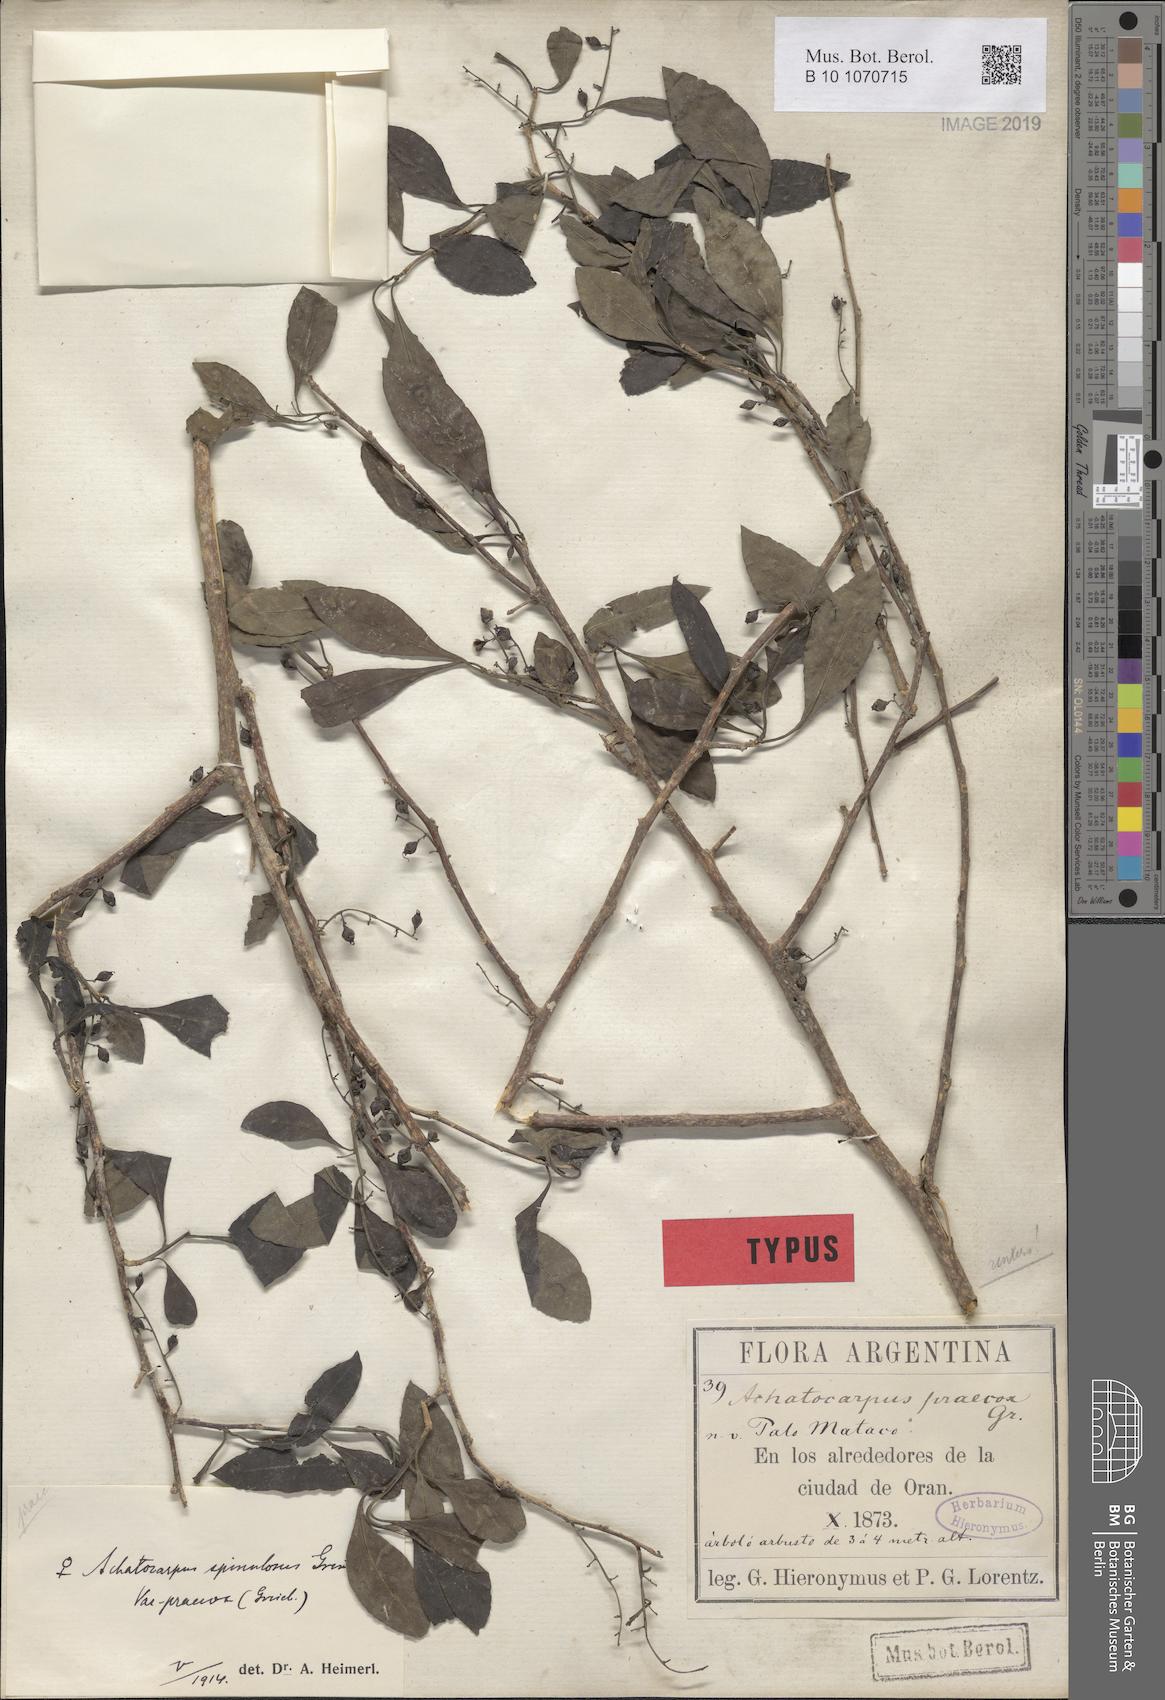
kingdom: Plantae
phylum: Tracheophyta
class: Magnoliopsida
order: Caryophyllales
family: Achatocarpaceae
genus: Achatocarpus
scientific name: Achatocarpus praecox
